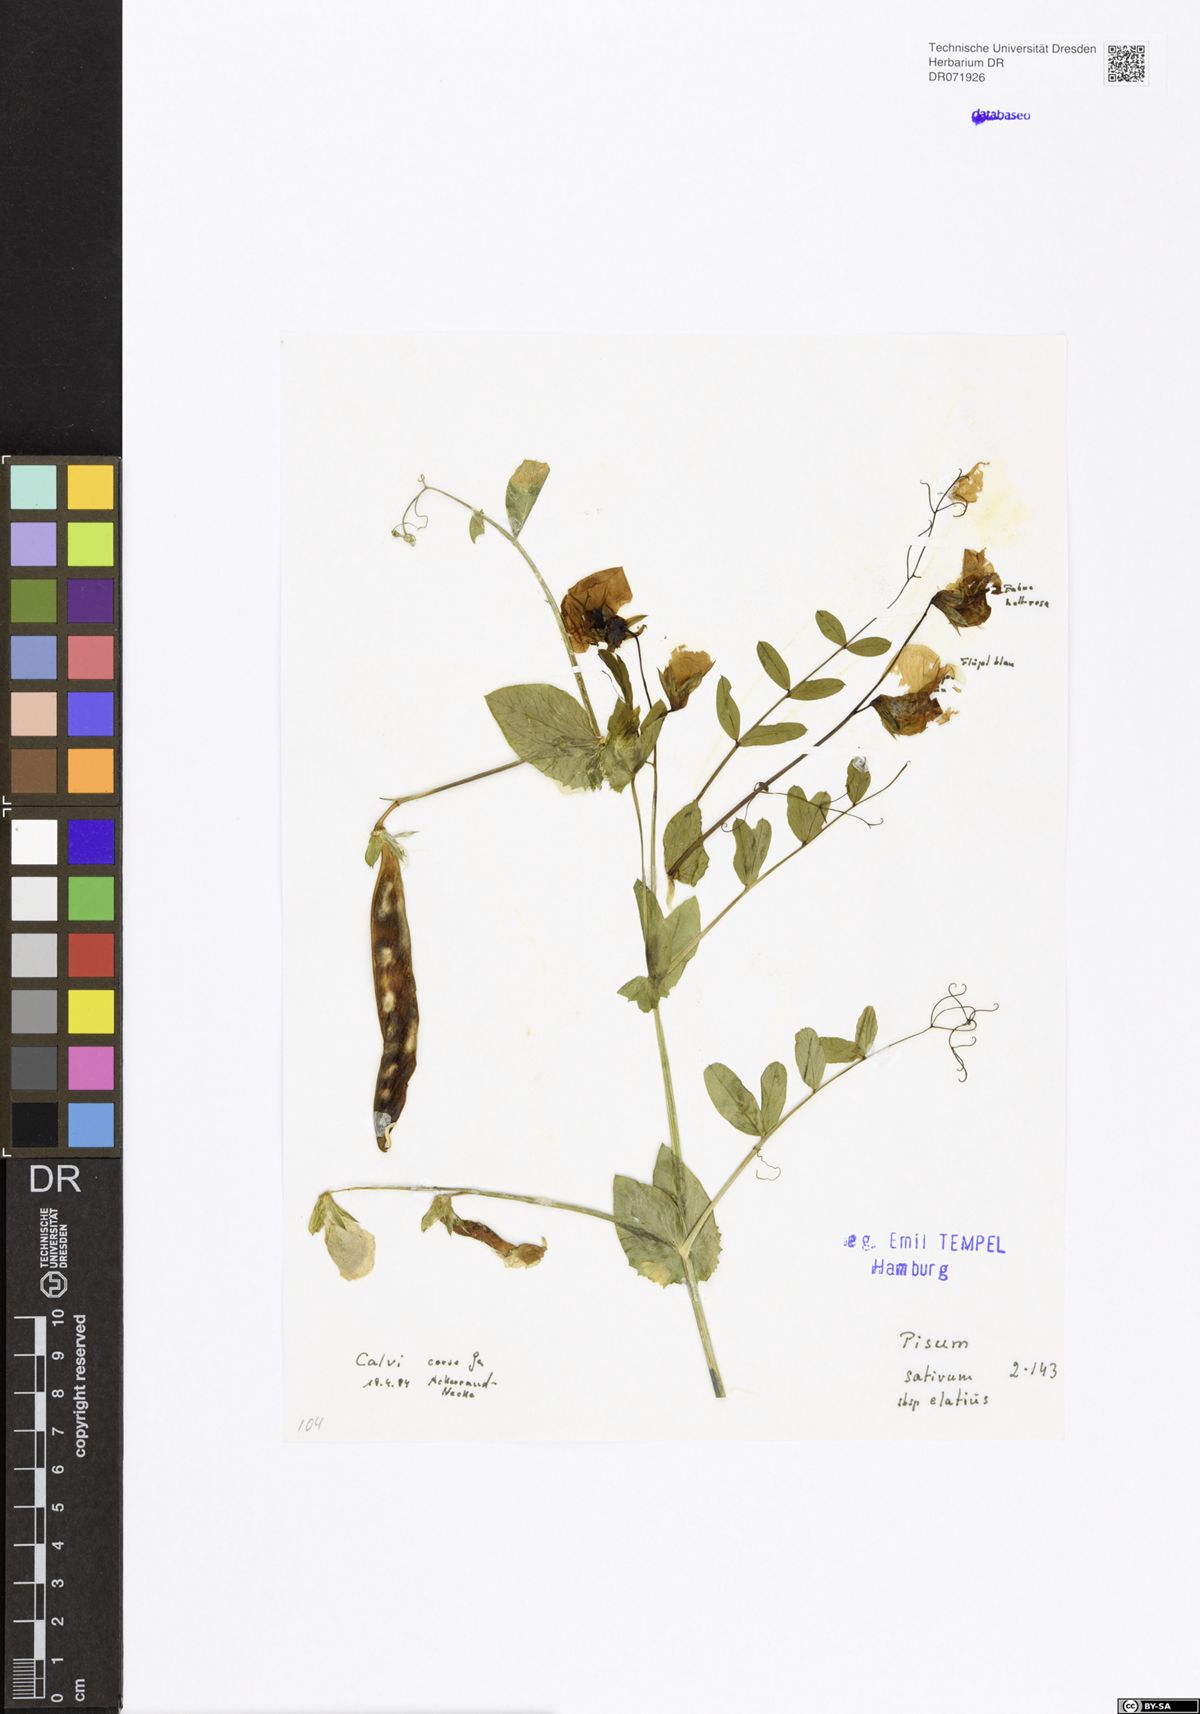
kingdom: Plantae
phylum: Tracheophyta
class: Magnoliopsida
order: Fabales
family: Fabaceae
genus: Lathyrus
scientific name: Lathyrus oleraceus
